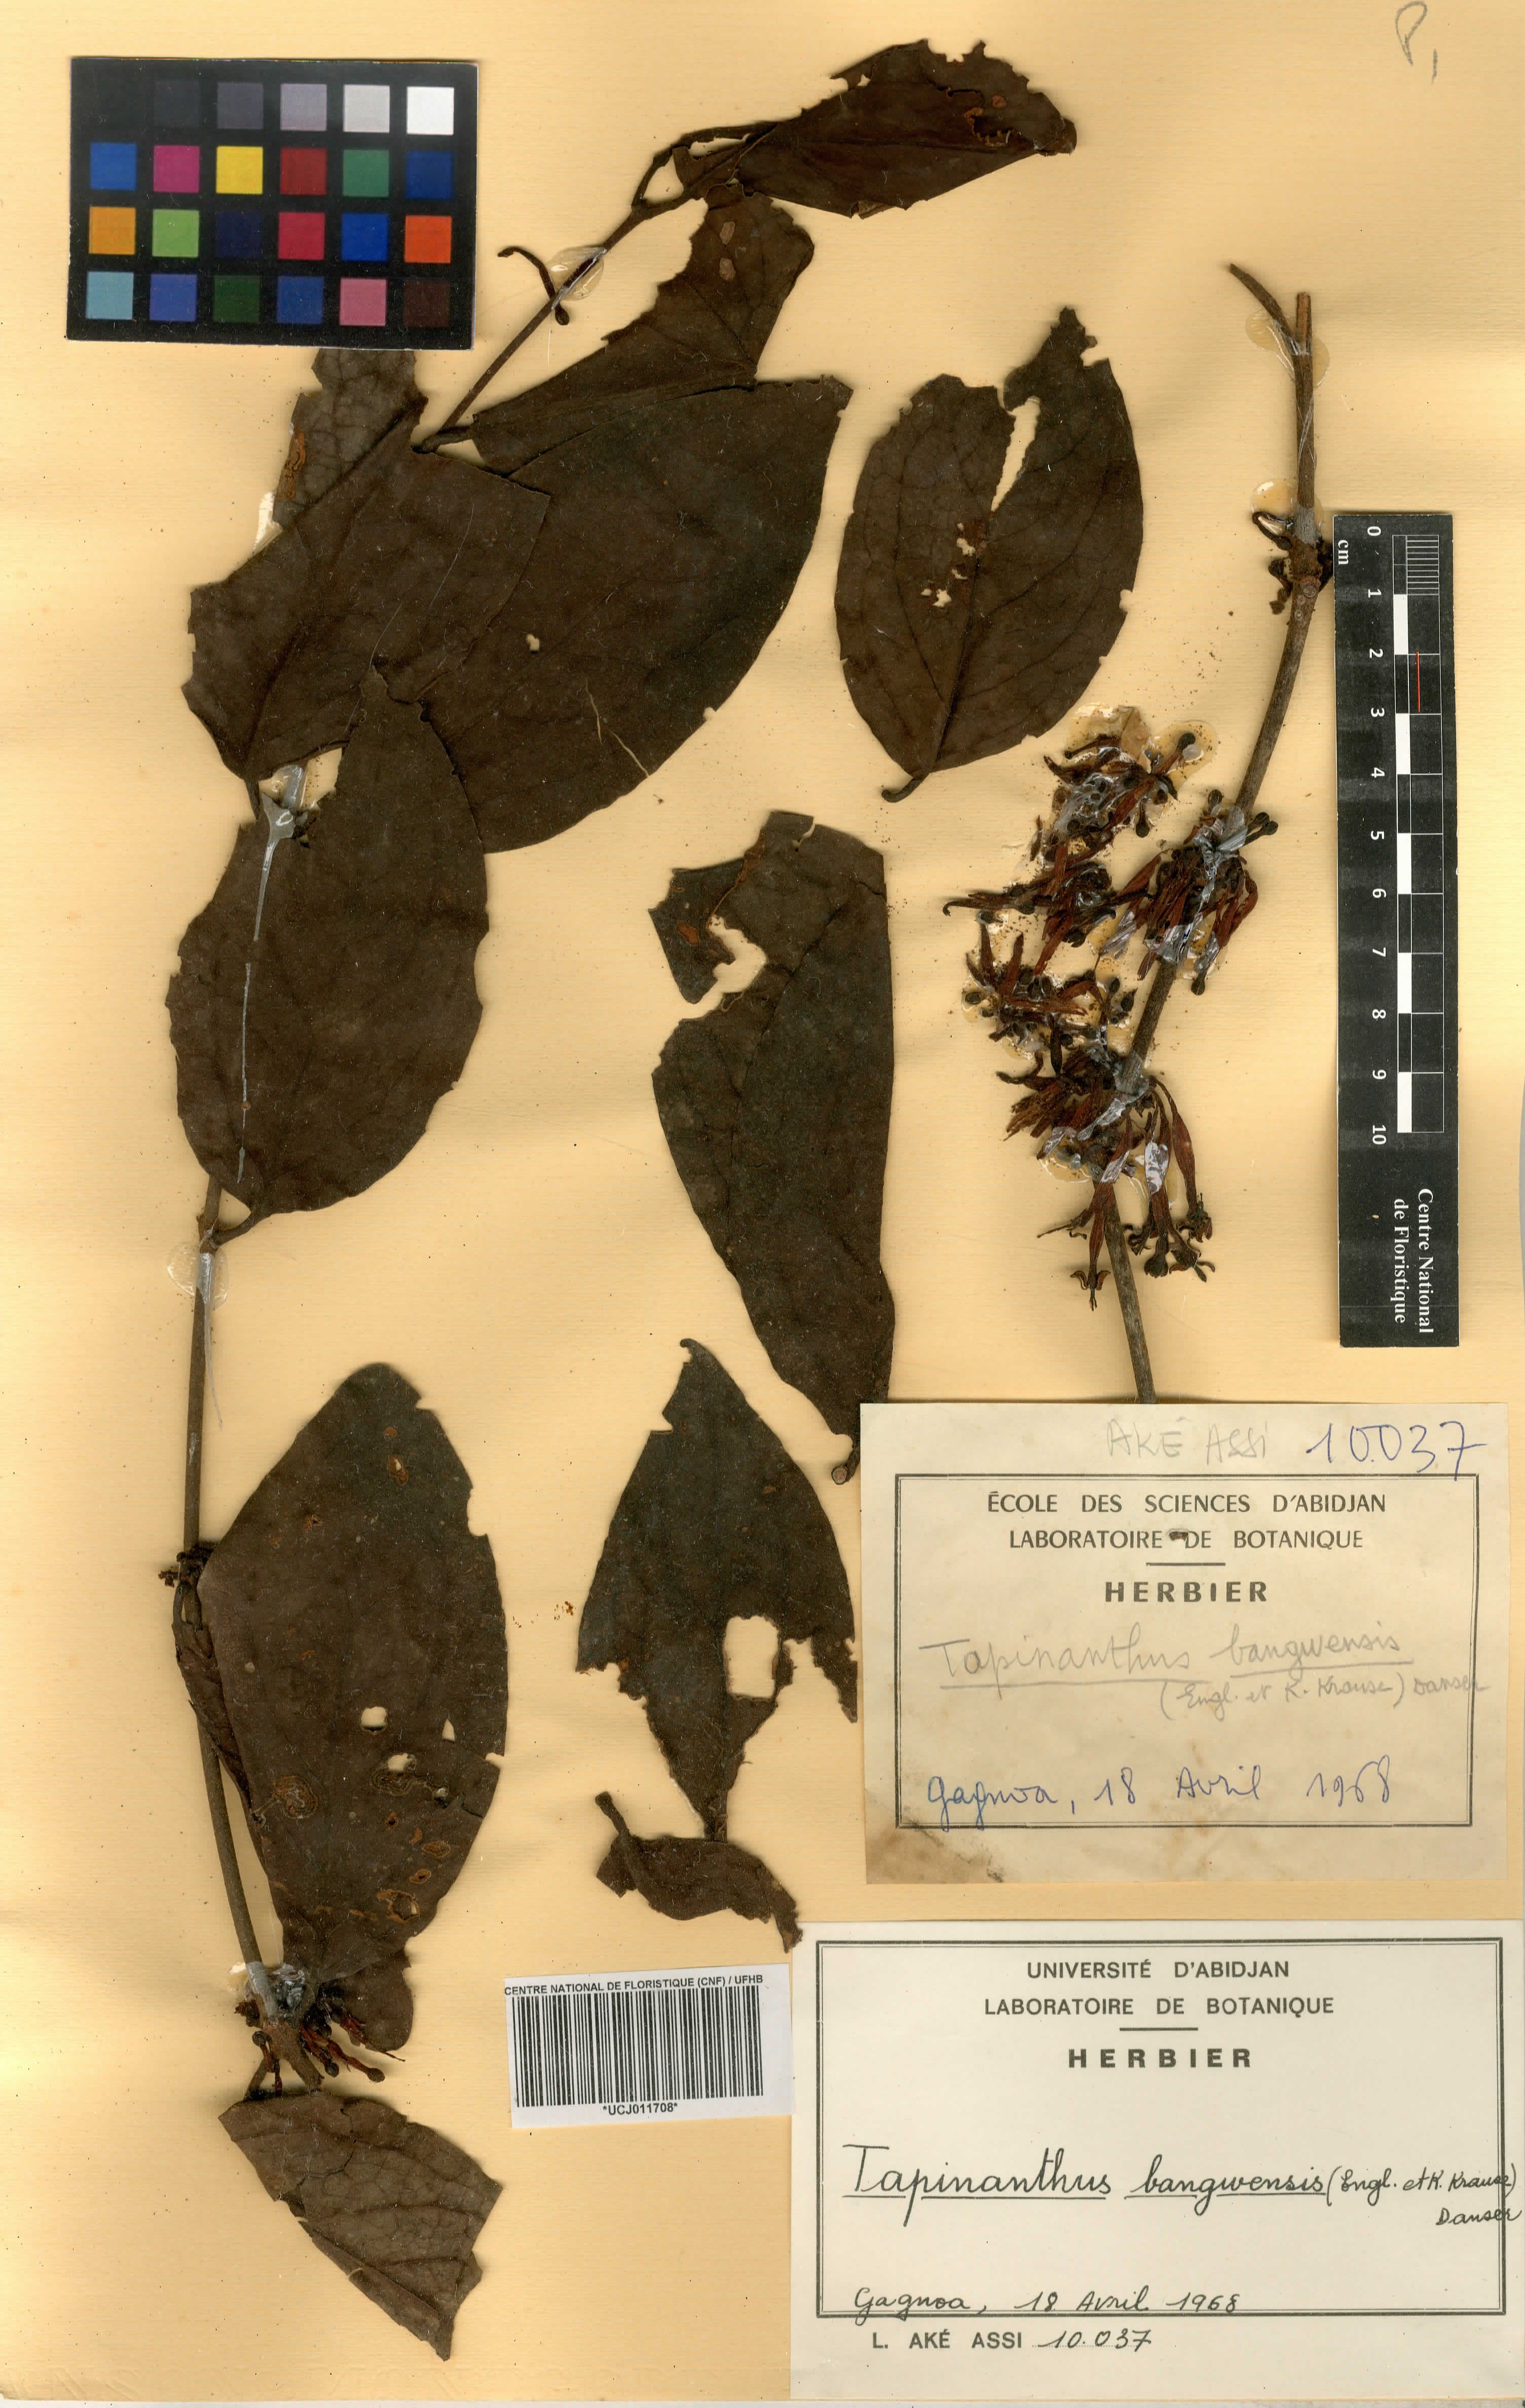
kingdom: Plantae
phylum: Tracheophyta
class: Magnoliopsida
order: Santalales
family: Loranthaceae
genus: Tapinanthus
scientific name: Tapinanthus bangwensis
